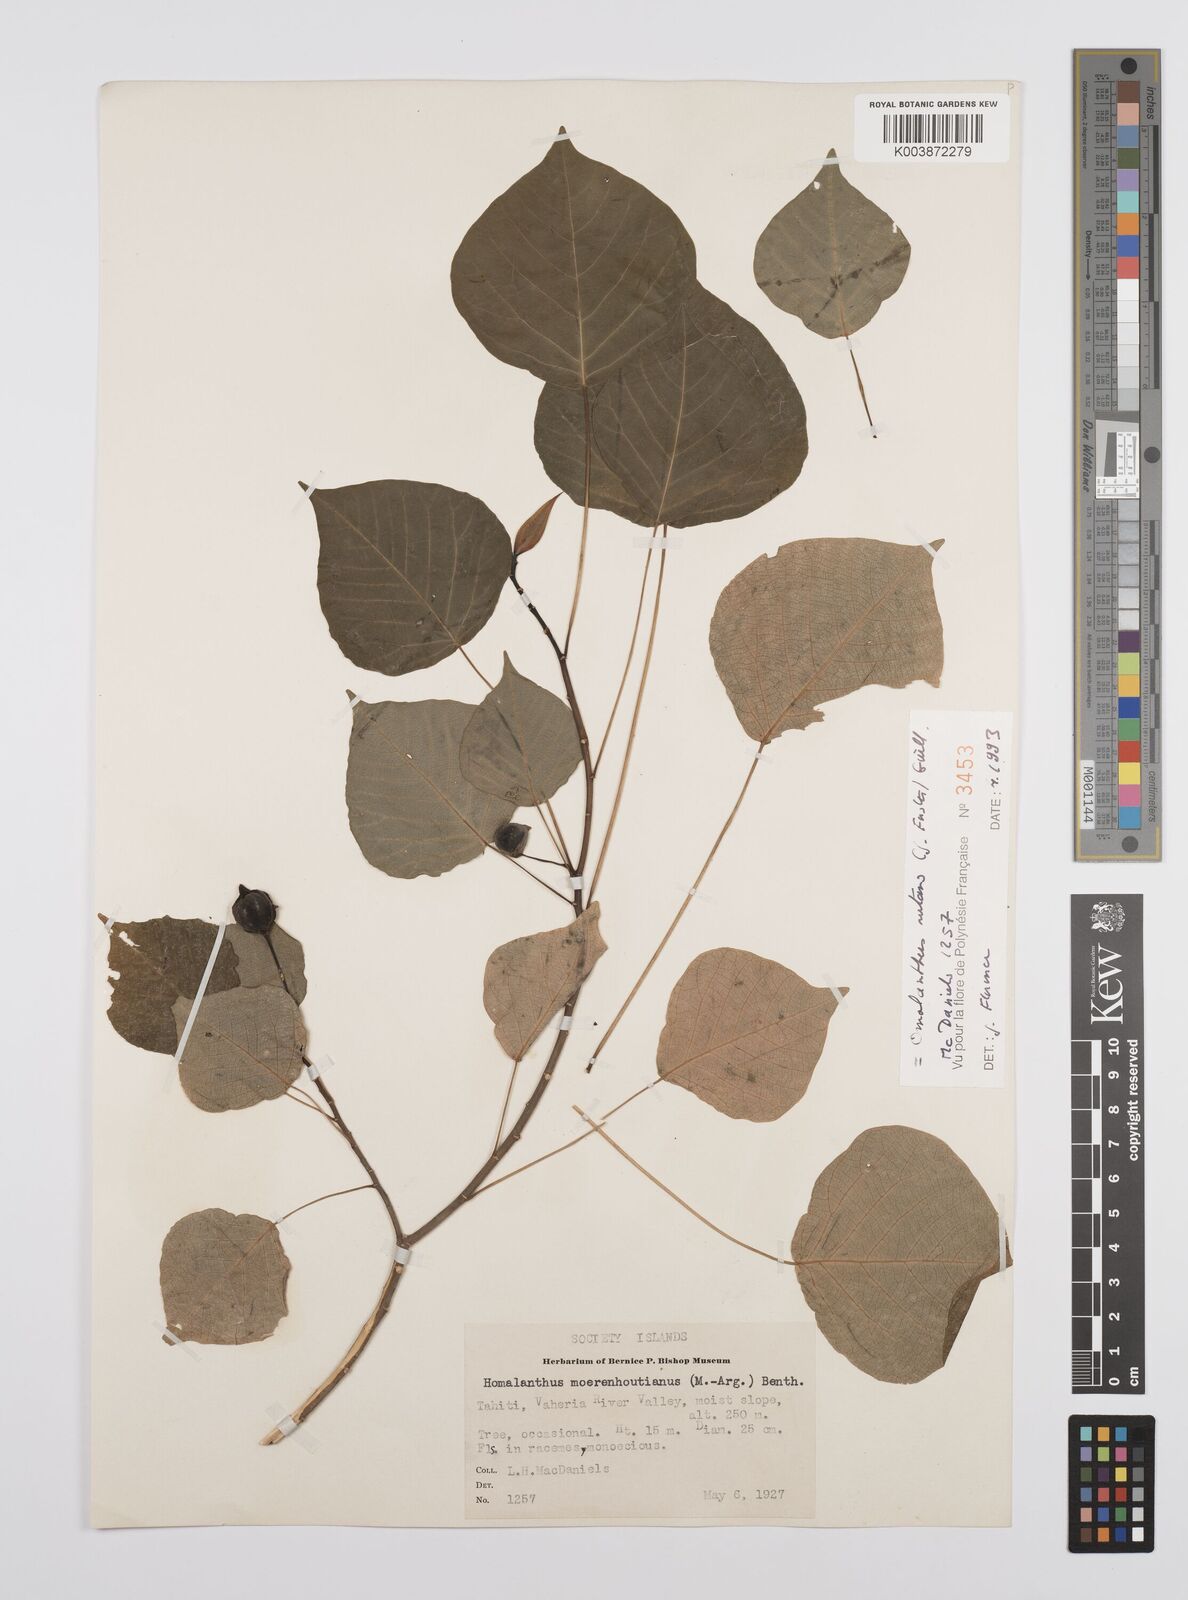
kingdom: Plantae
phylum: Tracheophyta
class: Magnoliopsida
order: Malpighiales
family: Euphorbiaceae
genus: Homalanthus
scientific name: Homalanthus nutans
